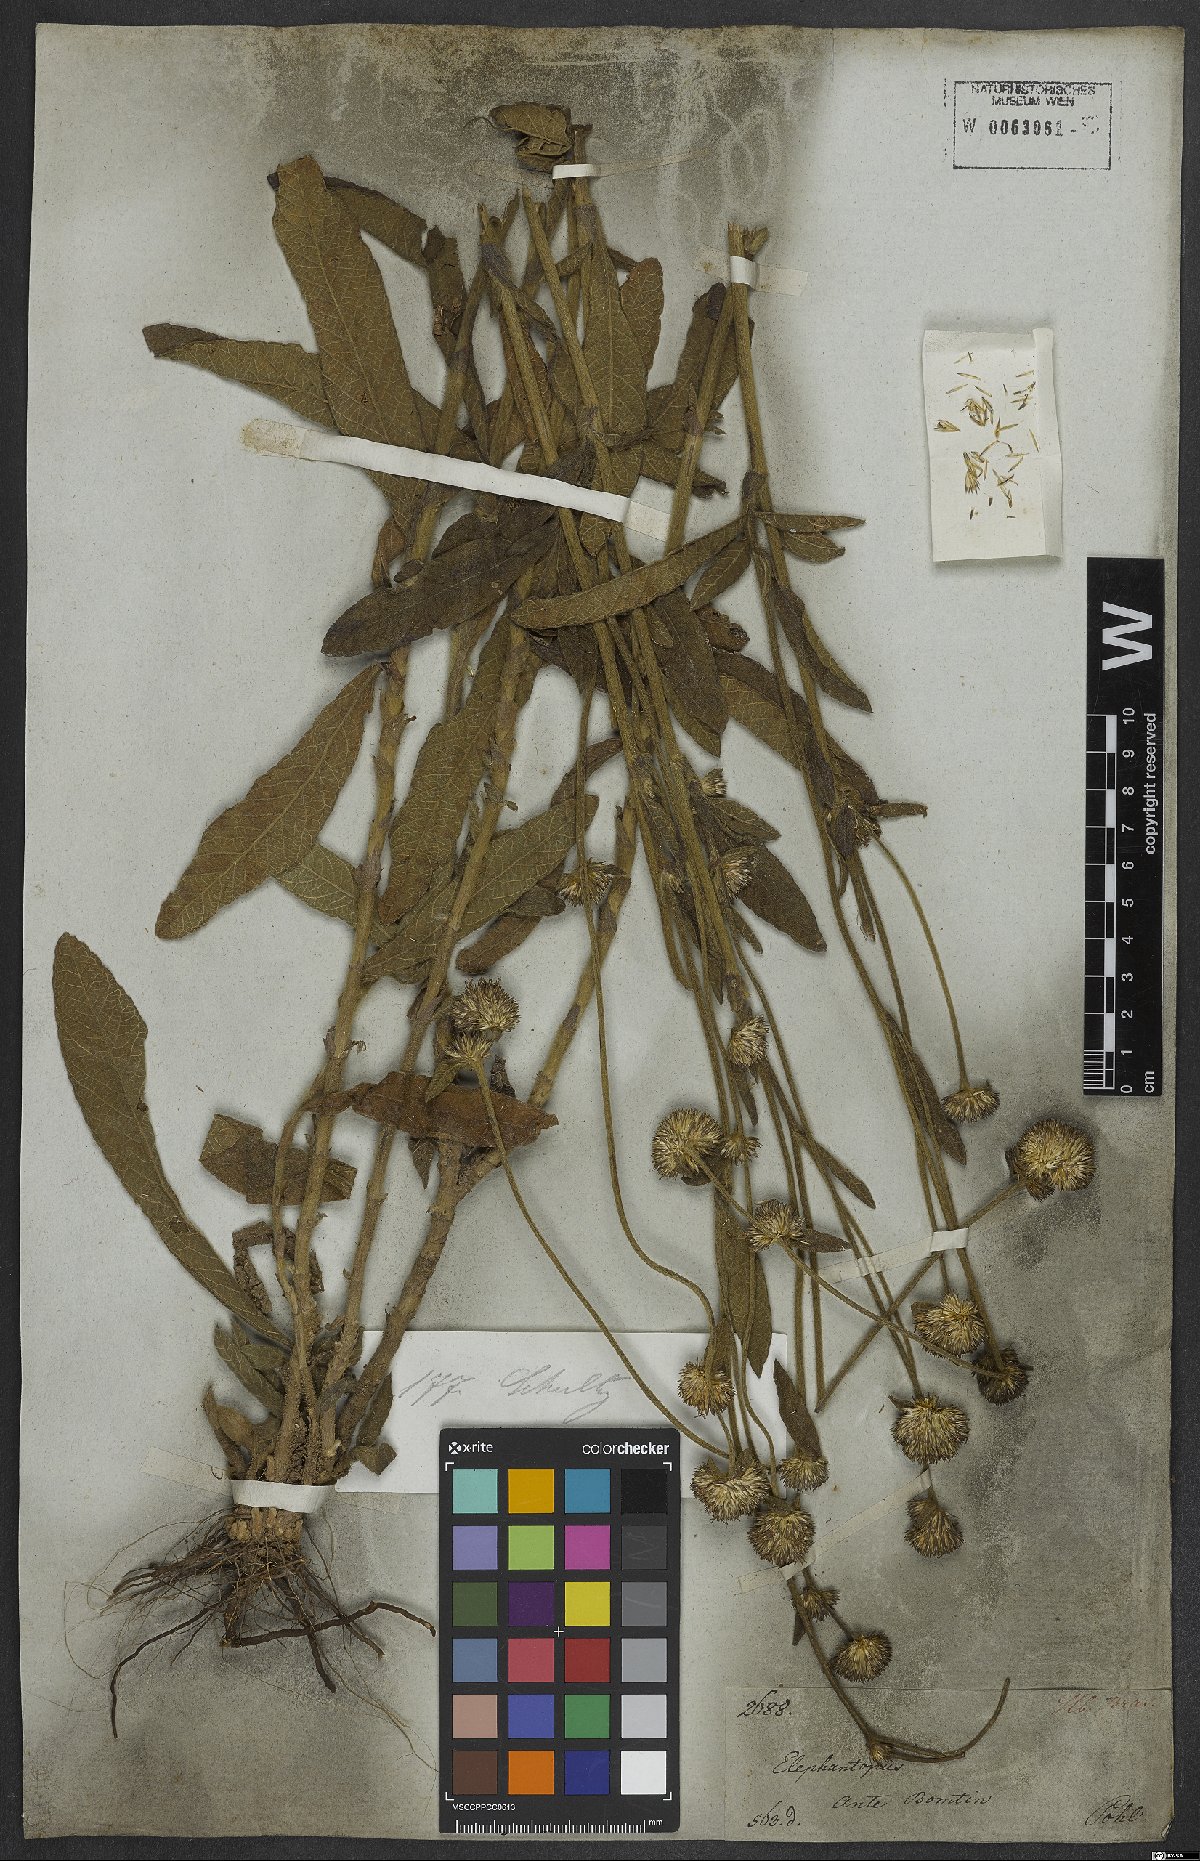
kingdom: Plantae
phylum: Tracheophyta
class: Magnoliopsida
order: Asterales
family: Asteraceae
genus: Elephantopus
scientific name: Elephantopus biflorus
